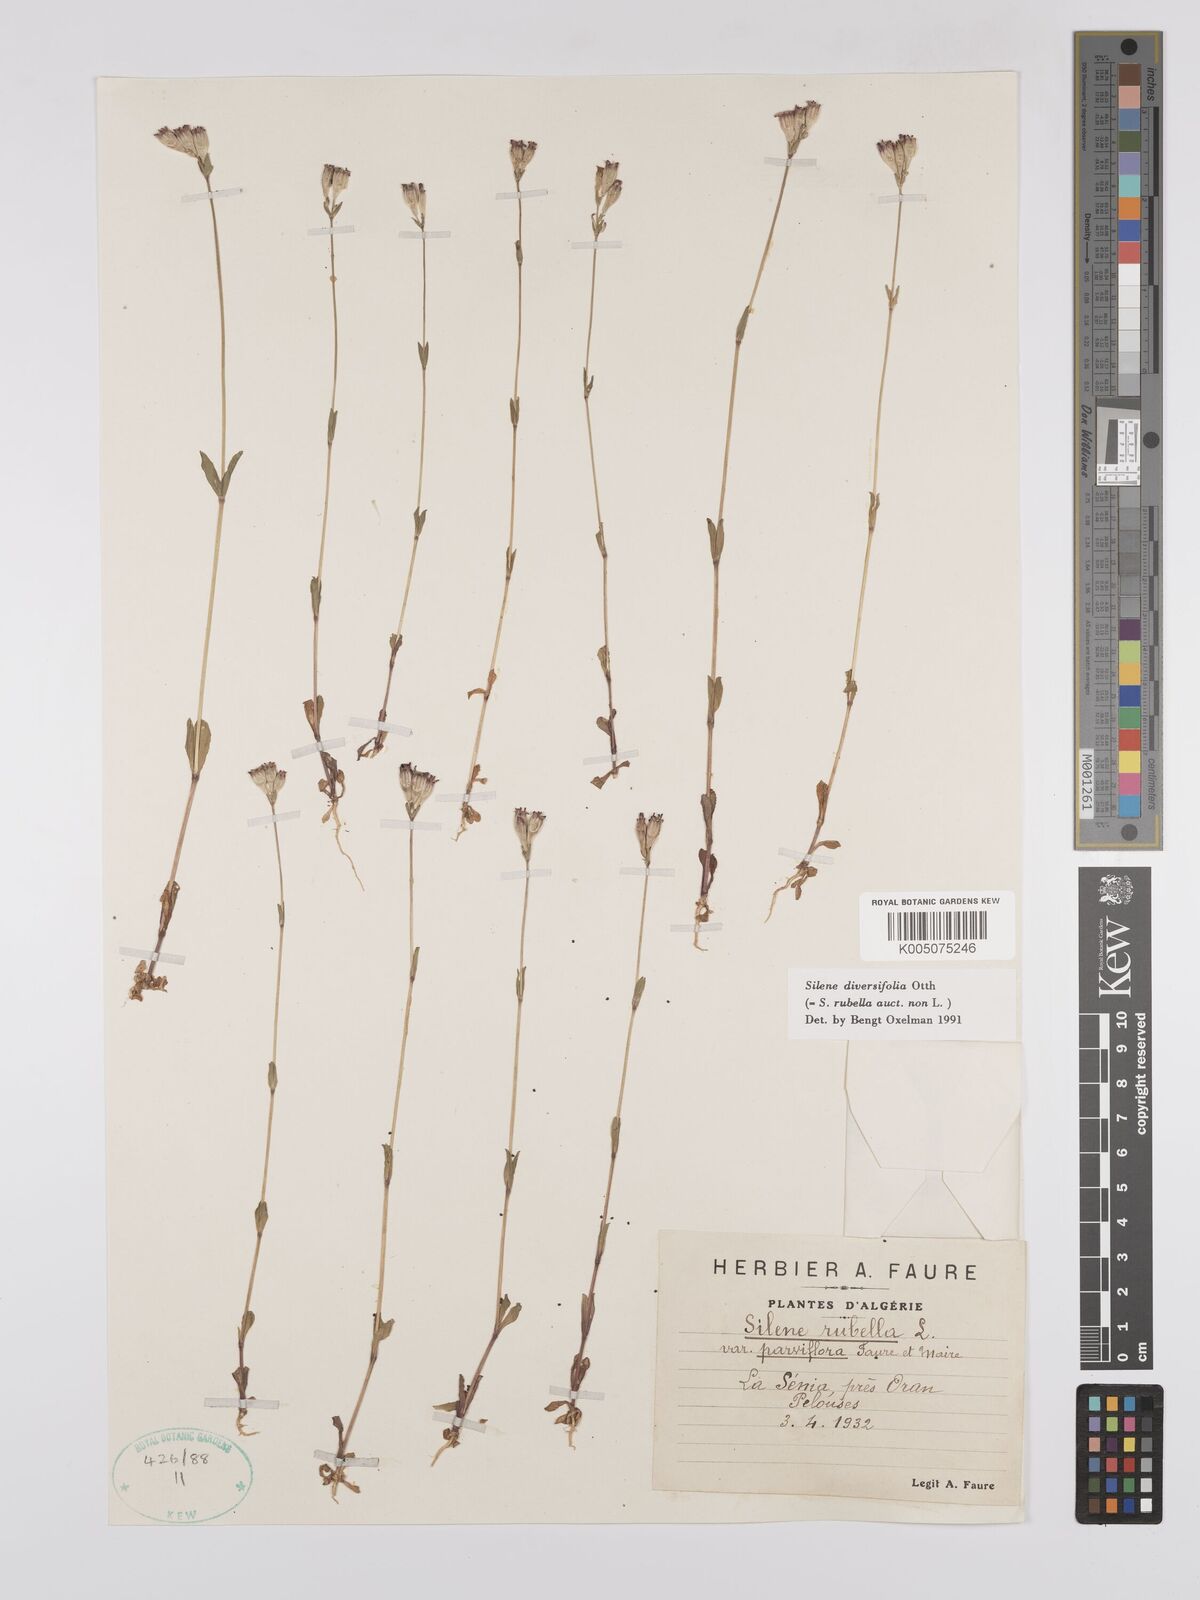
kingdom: Plantae
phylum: Tracheophyta
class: Magnoliopsida
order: Caryophyllales
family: Caryophyllaceae
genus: Silene
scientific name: Silene rubella
